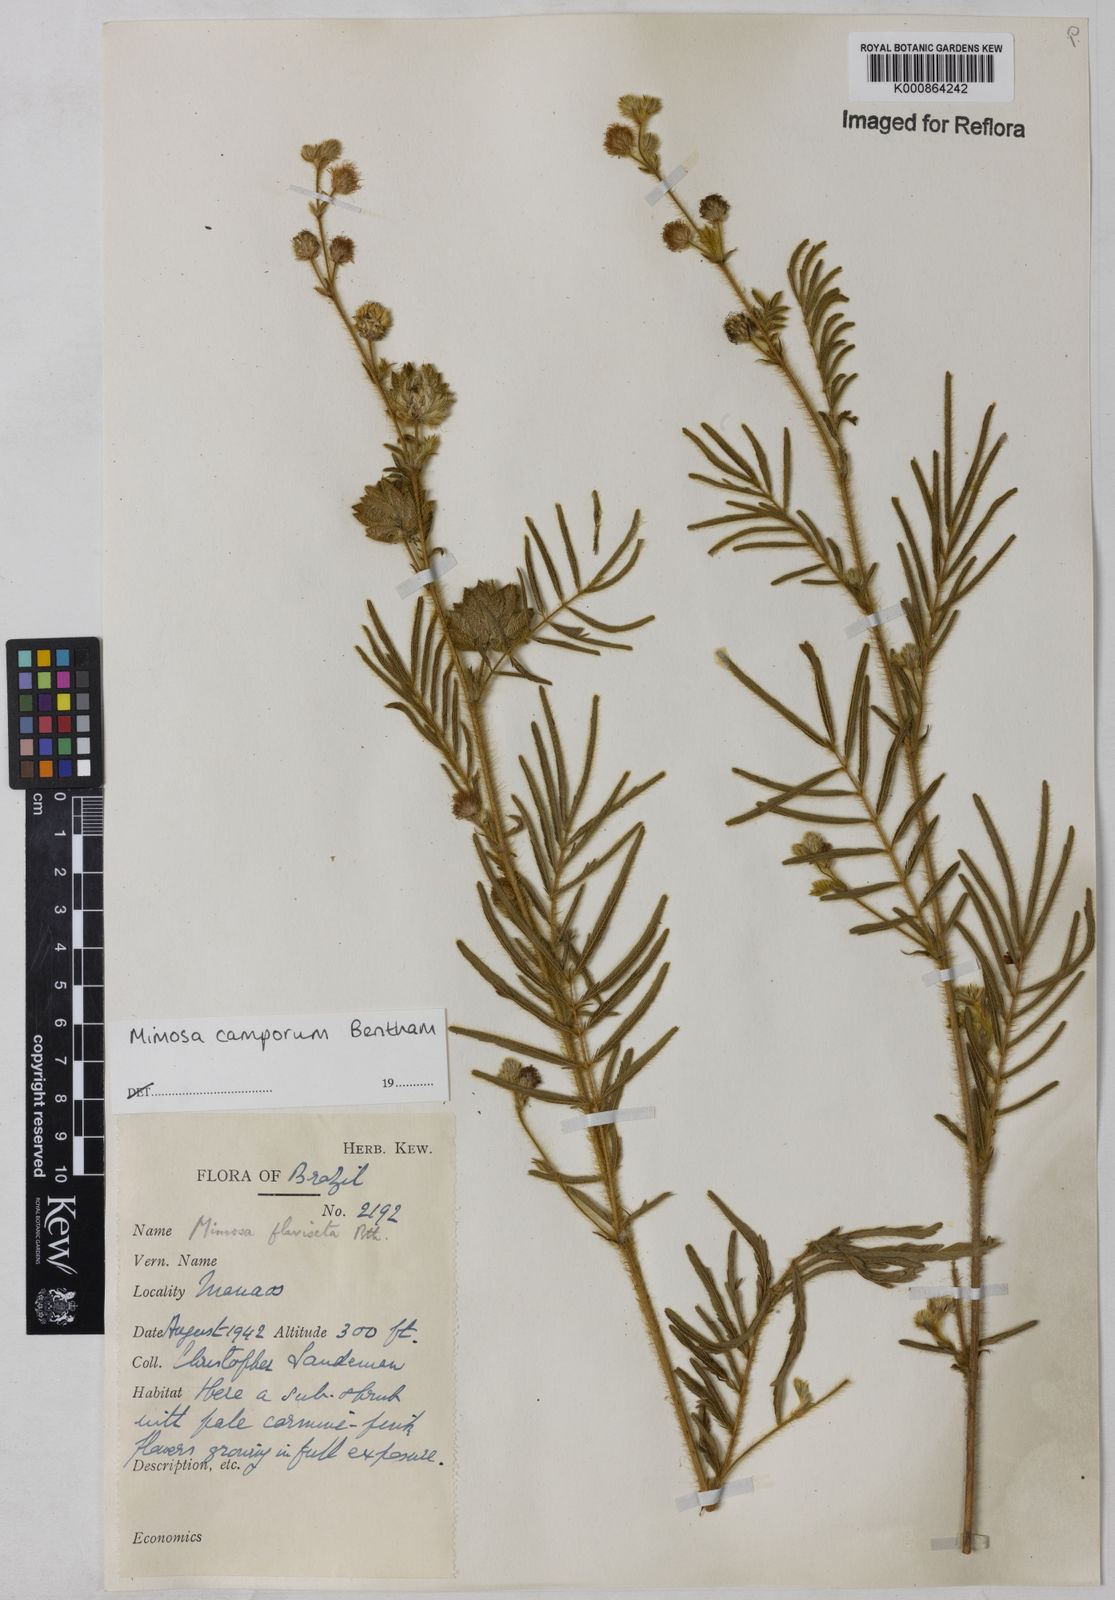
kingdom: Plantae
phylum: Tracheophyta
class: Magnoliopsida
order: Fabales
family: Fabaceae
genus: Mimosa
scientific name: Mimosa camporum
